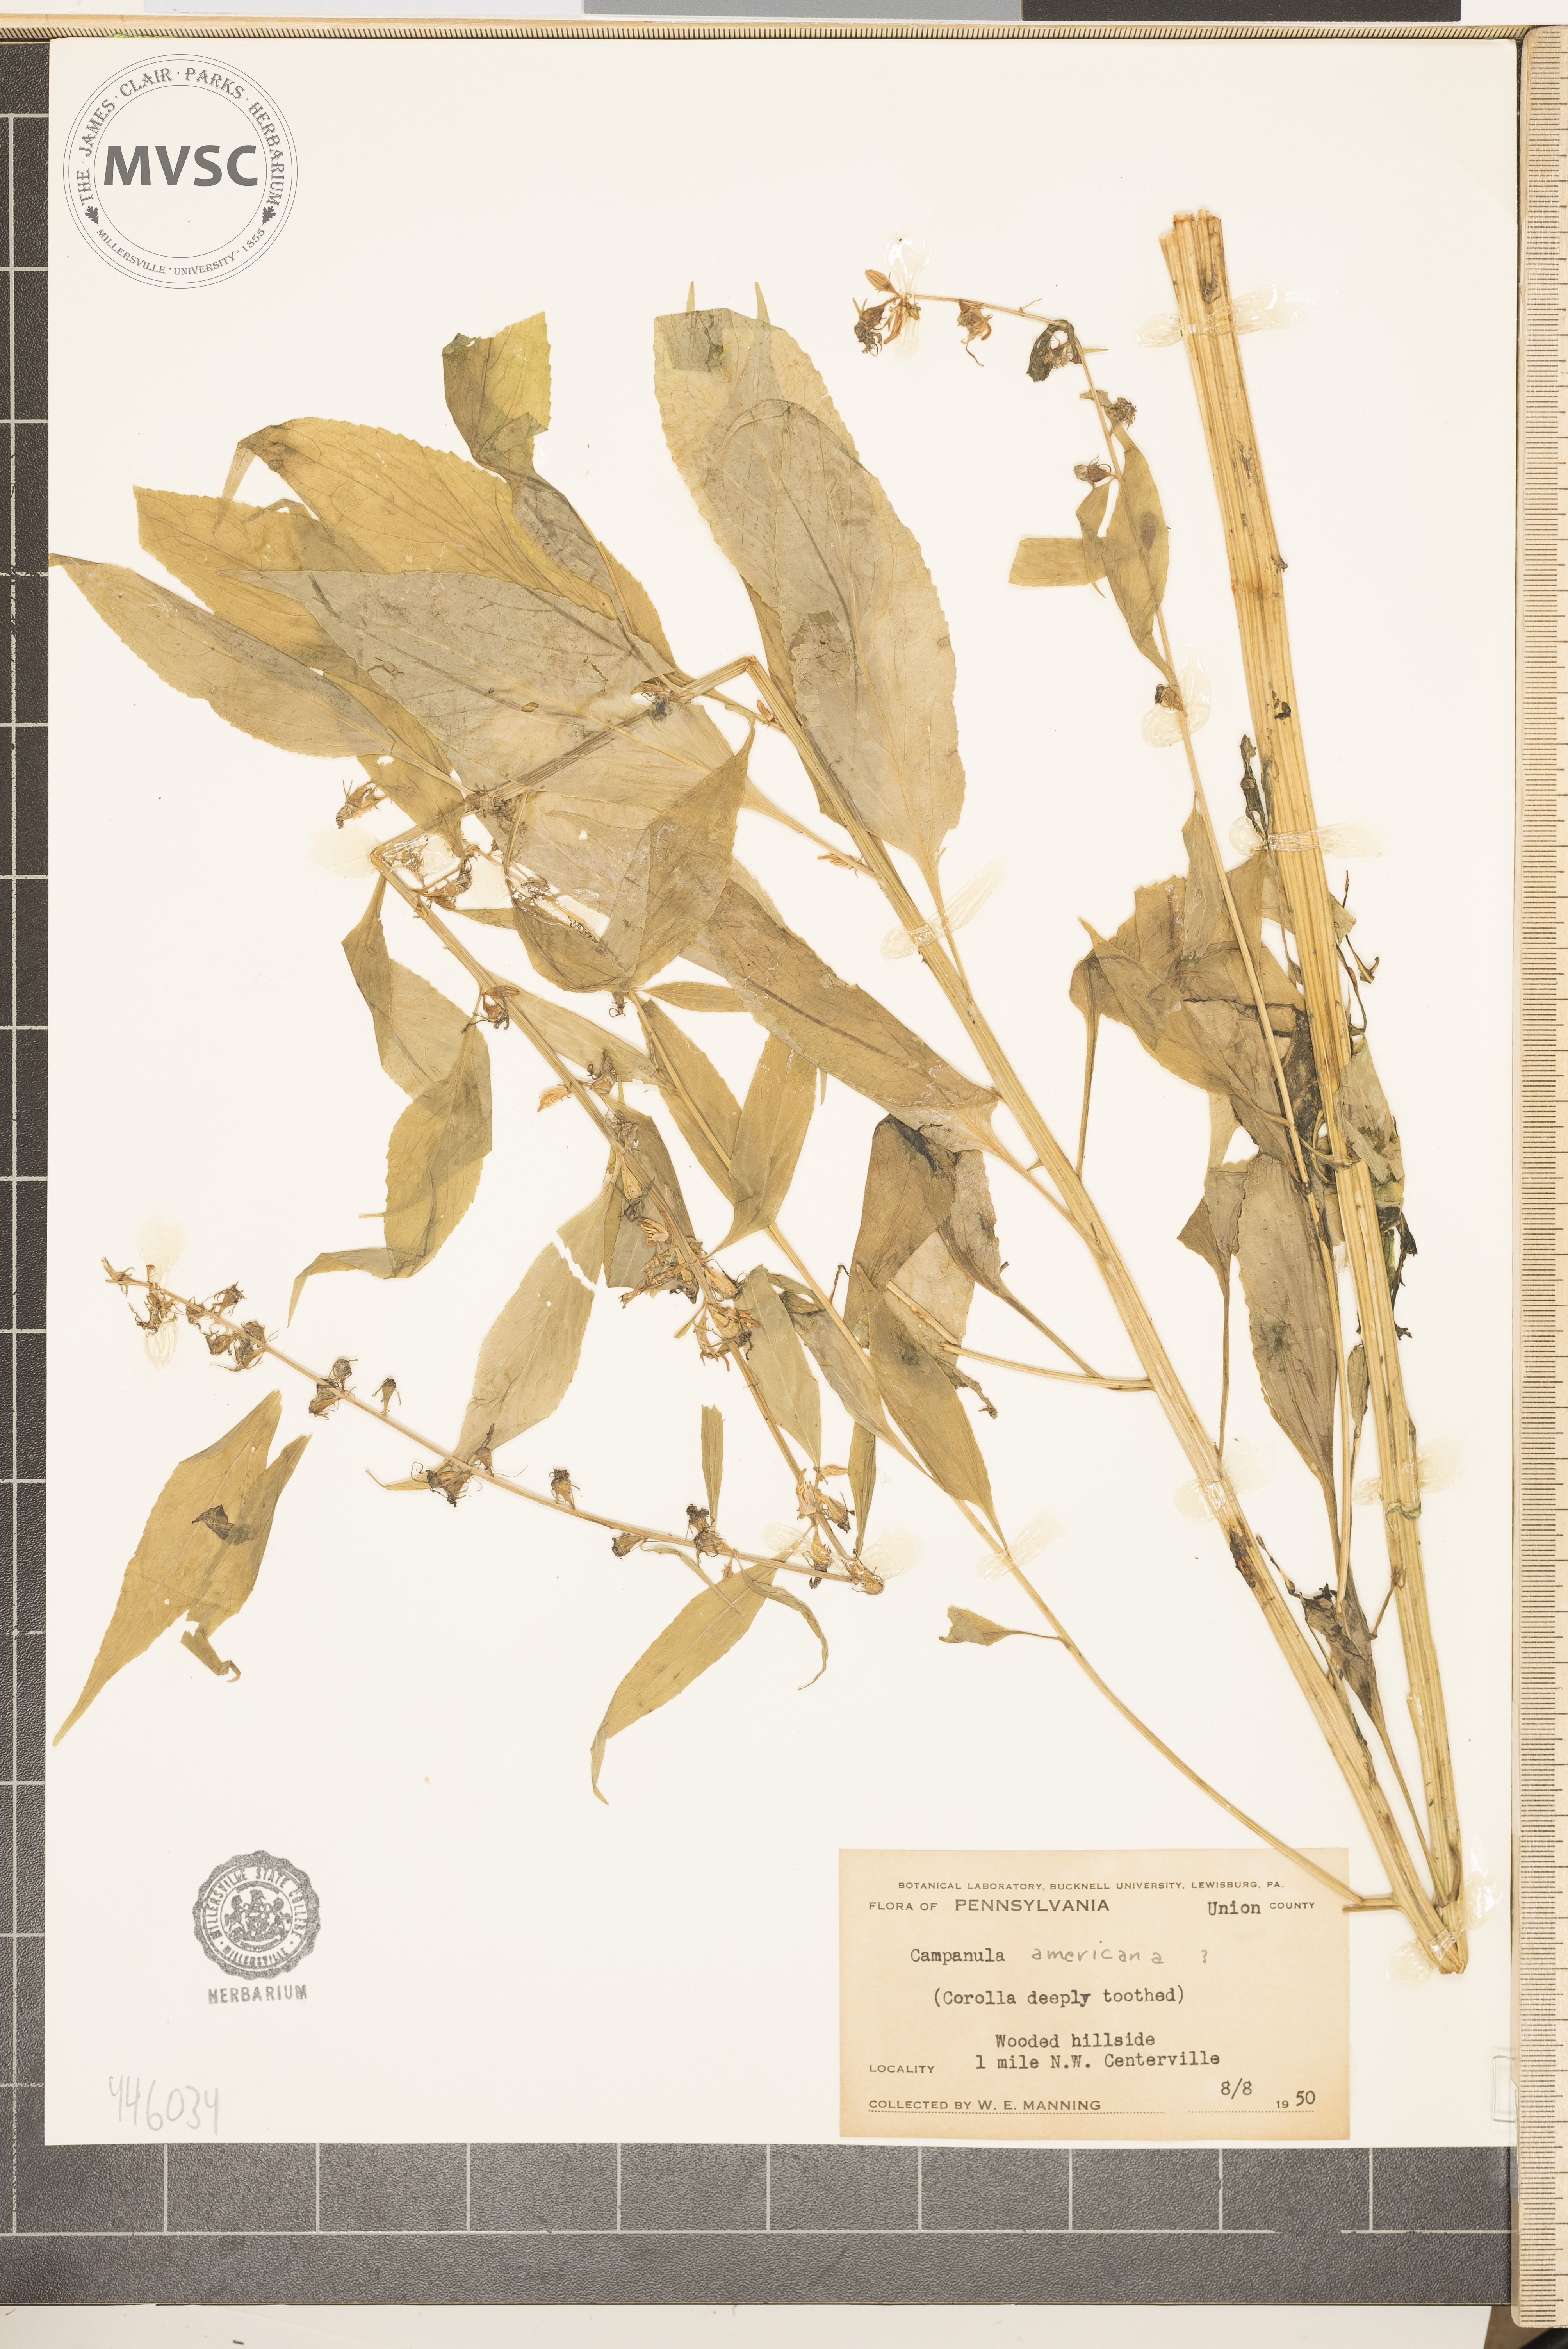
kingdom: Plantae
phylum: Tracheophyta
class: Magnoliopsida
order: Asterales
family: Campanulaceae
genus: Campanula
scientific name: Campanula americana
